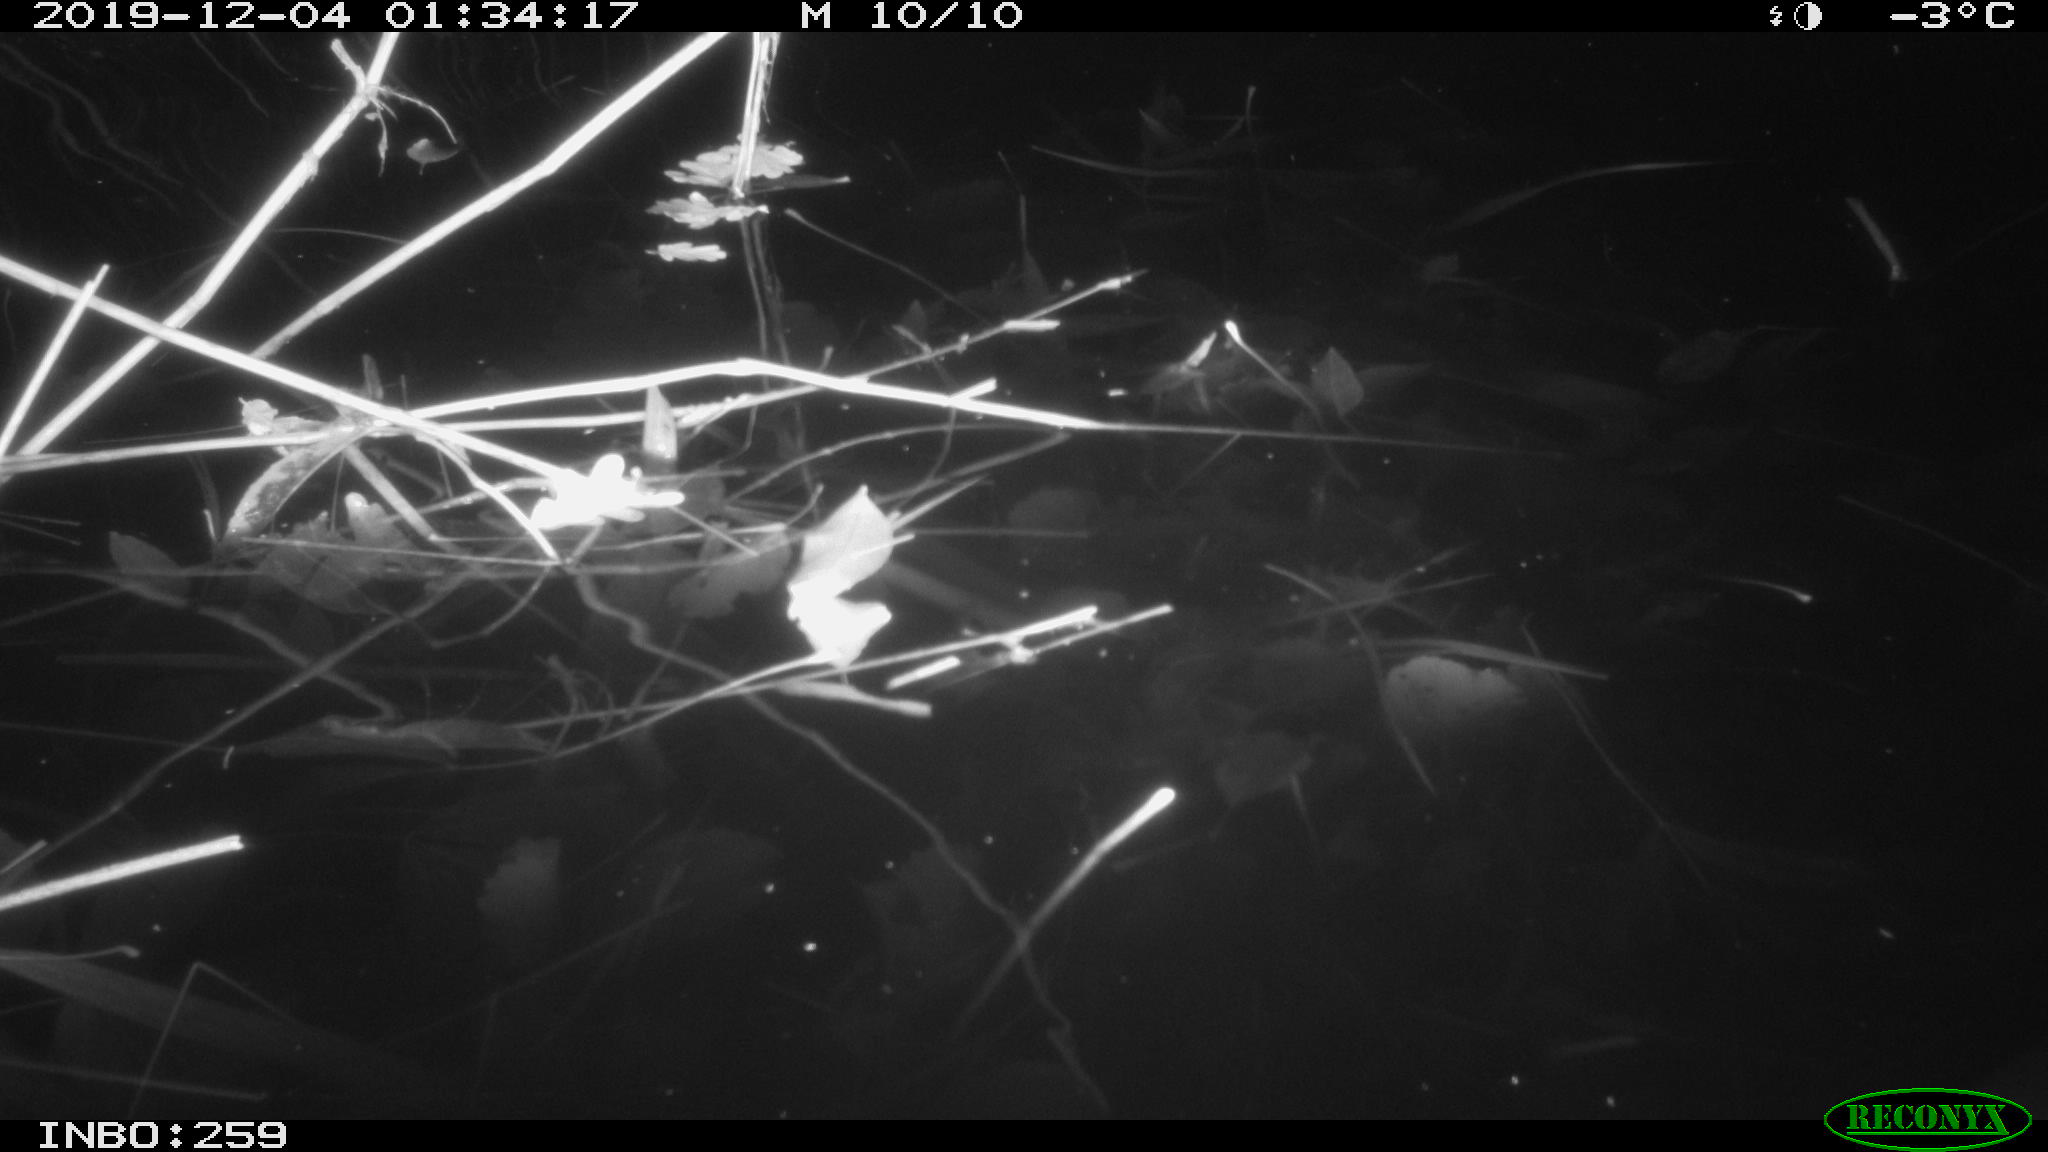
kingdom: Animalia
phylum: Chordata
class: Mammalia
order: Rodentia
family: Cricetidae
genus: Ondatra
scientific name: Ondatra zibethicus
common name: Muskrat
